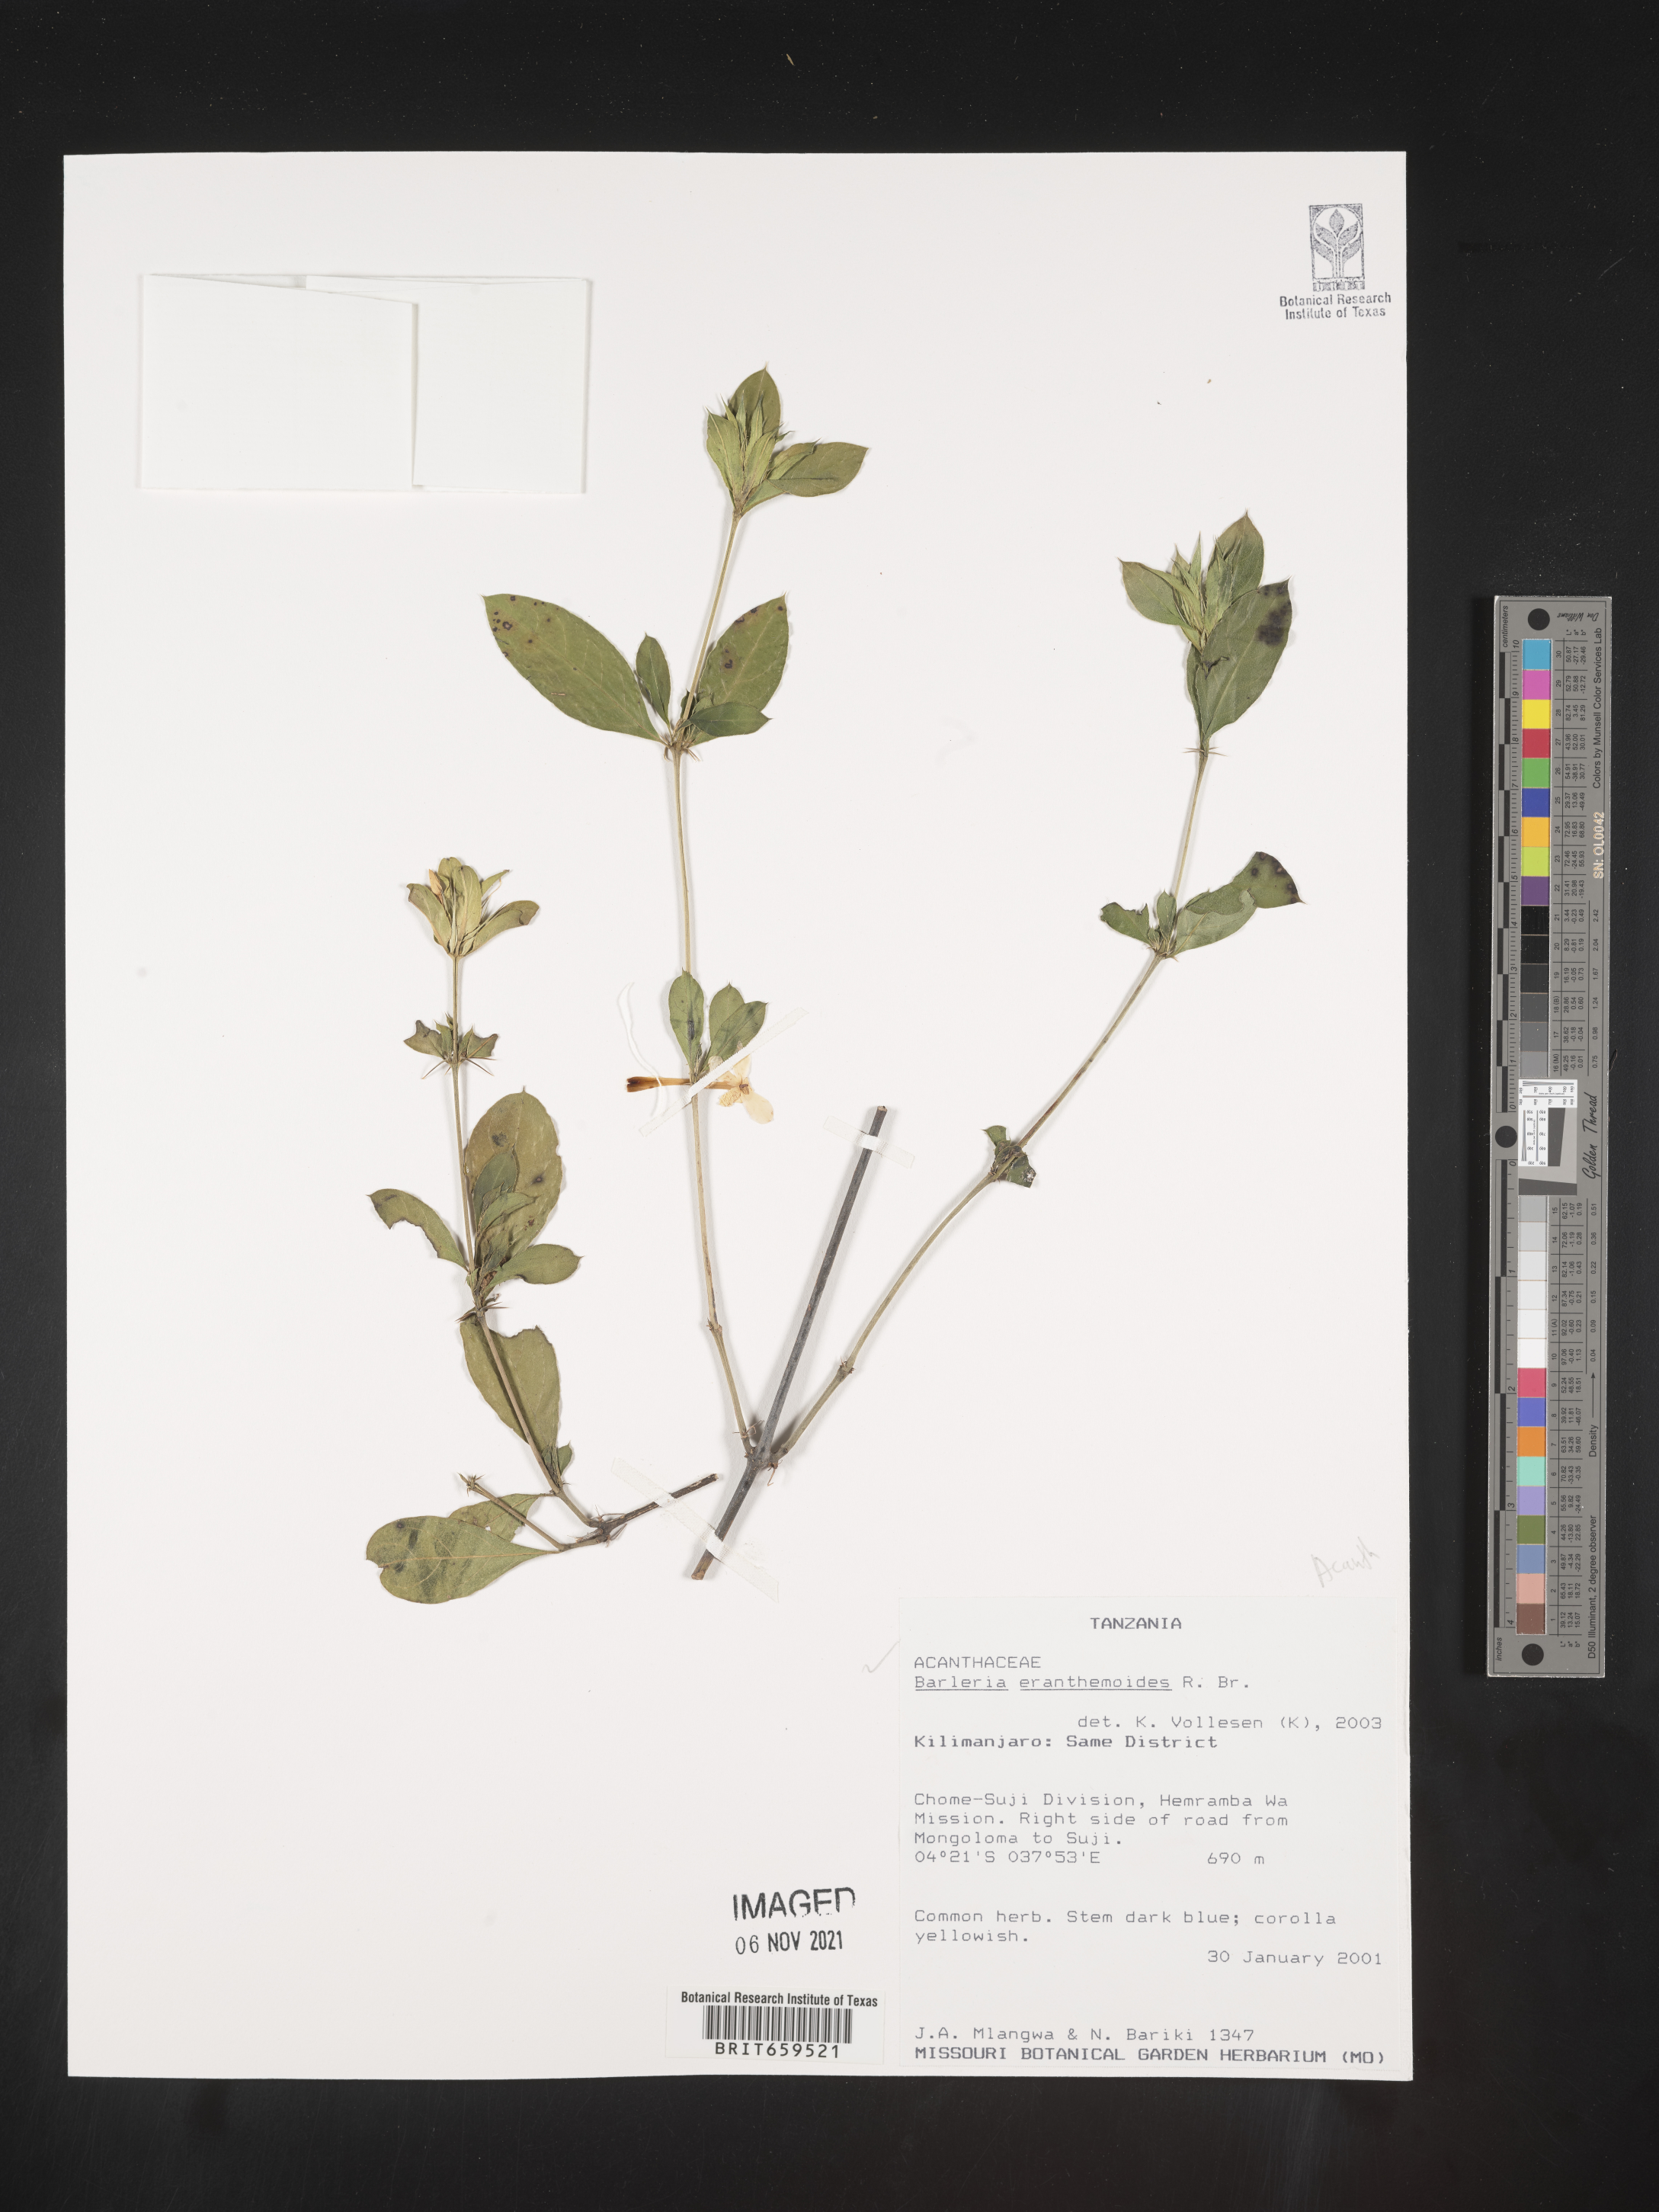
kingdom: Plantae
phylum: Tracheophyta
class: Magnoliopsida
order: Lamiales
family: Acanthaceae
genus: Barleria
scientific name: Barleria eranthemoides
